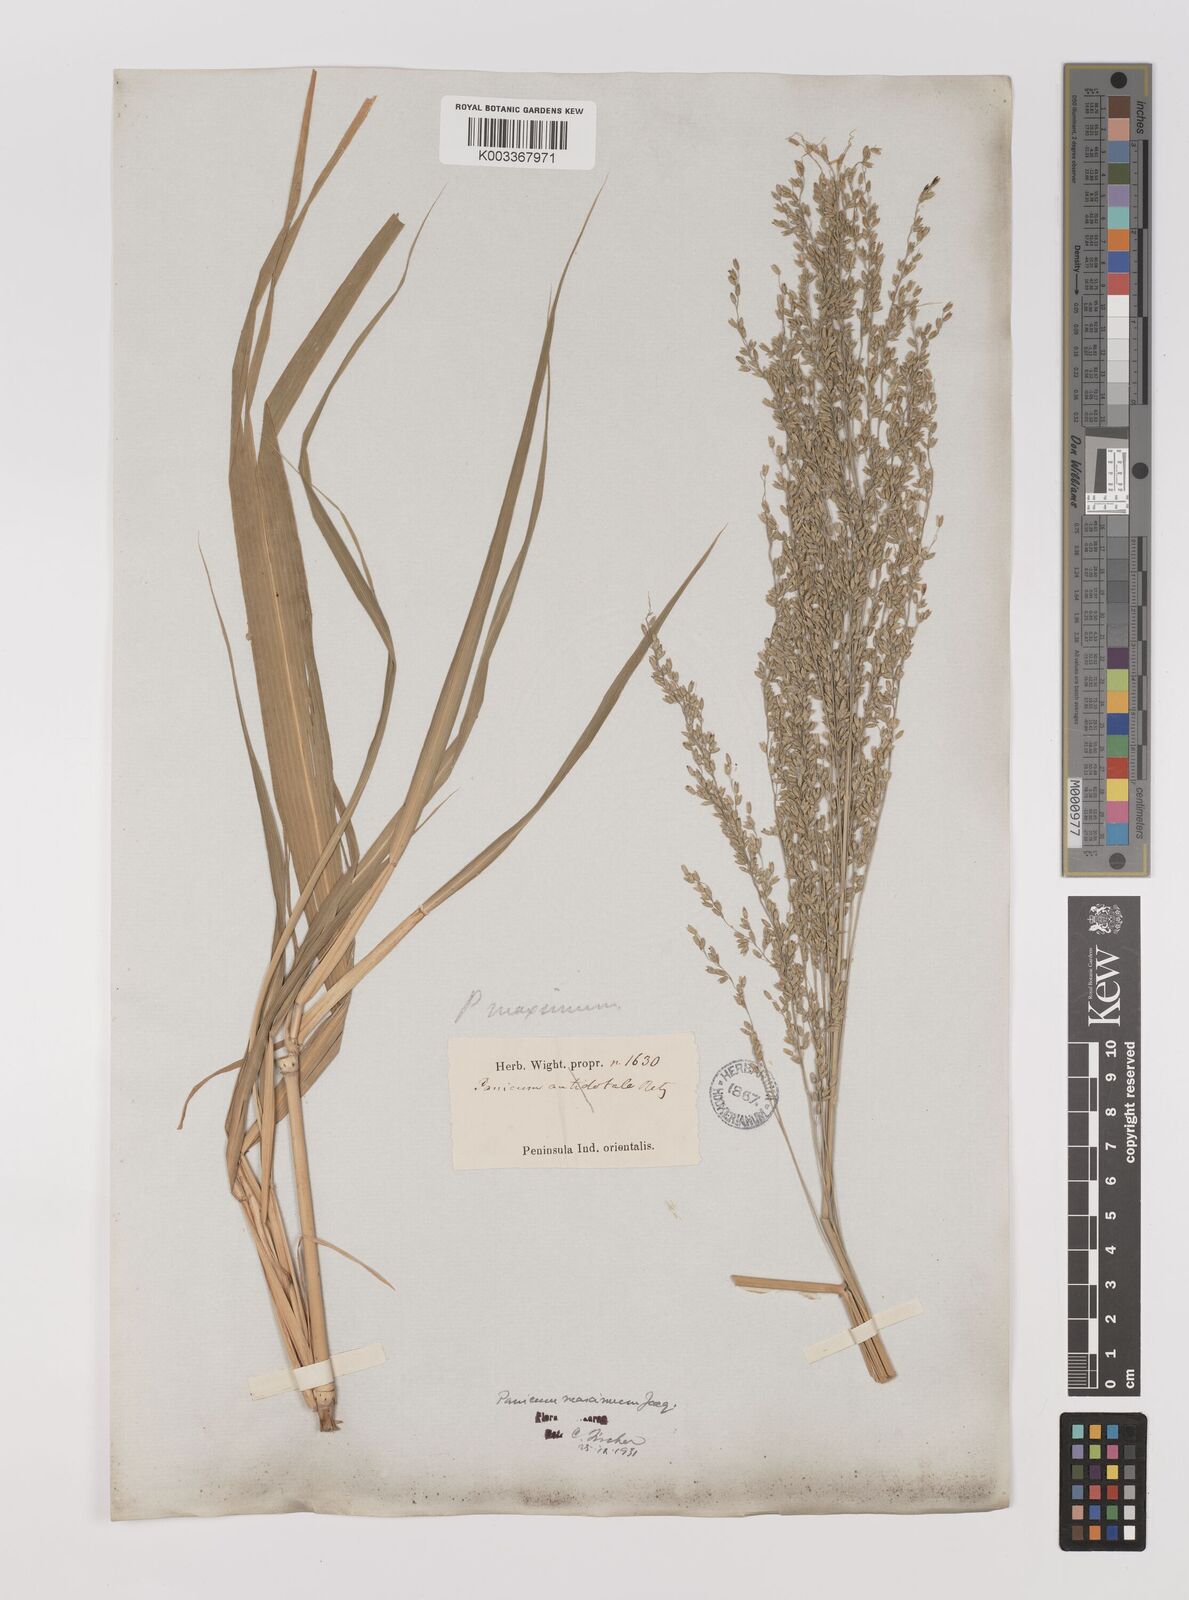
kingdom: Plantae
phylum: Tracheophyta
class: Liliopsida
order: Poales
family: Poaceae
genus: Megathyrsus
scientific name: Megathyrsus maximus
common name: Guineagrass
